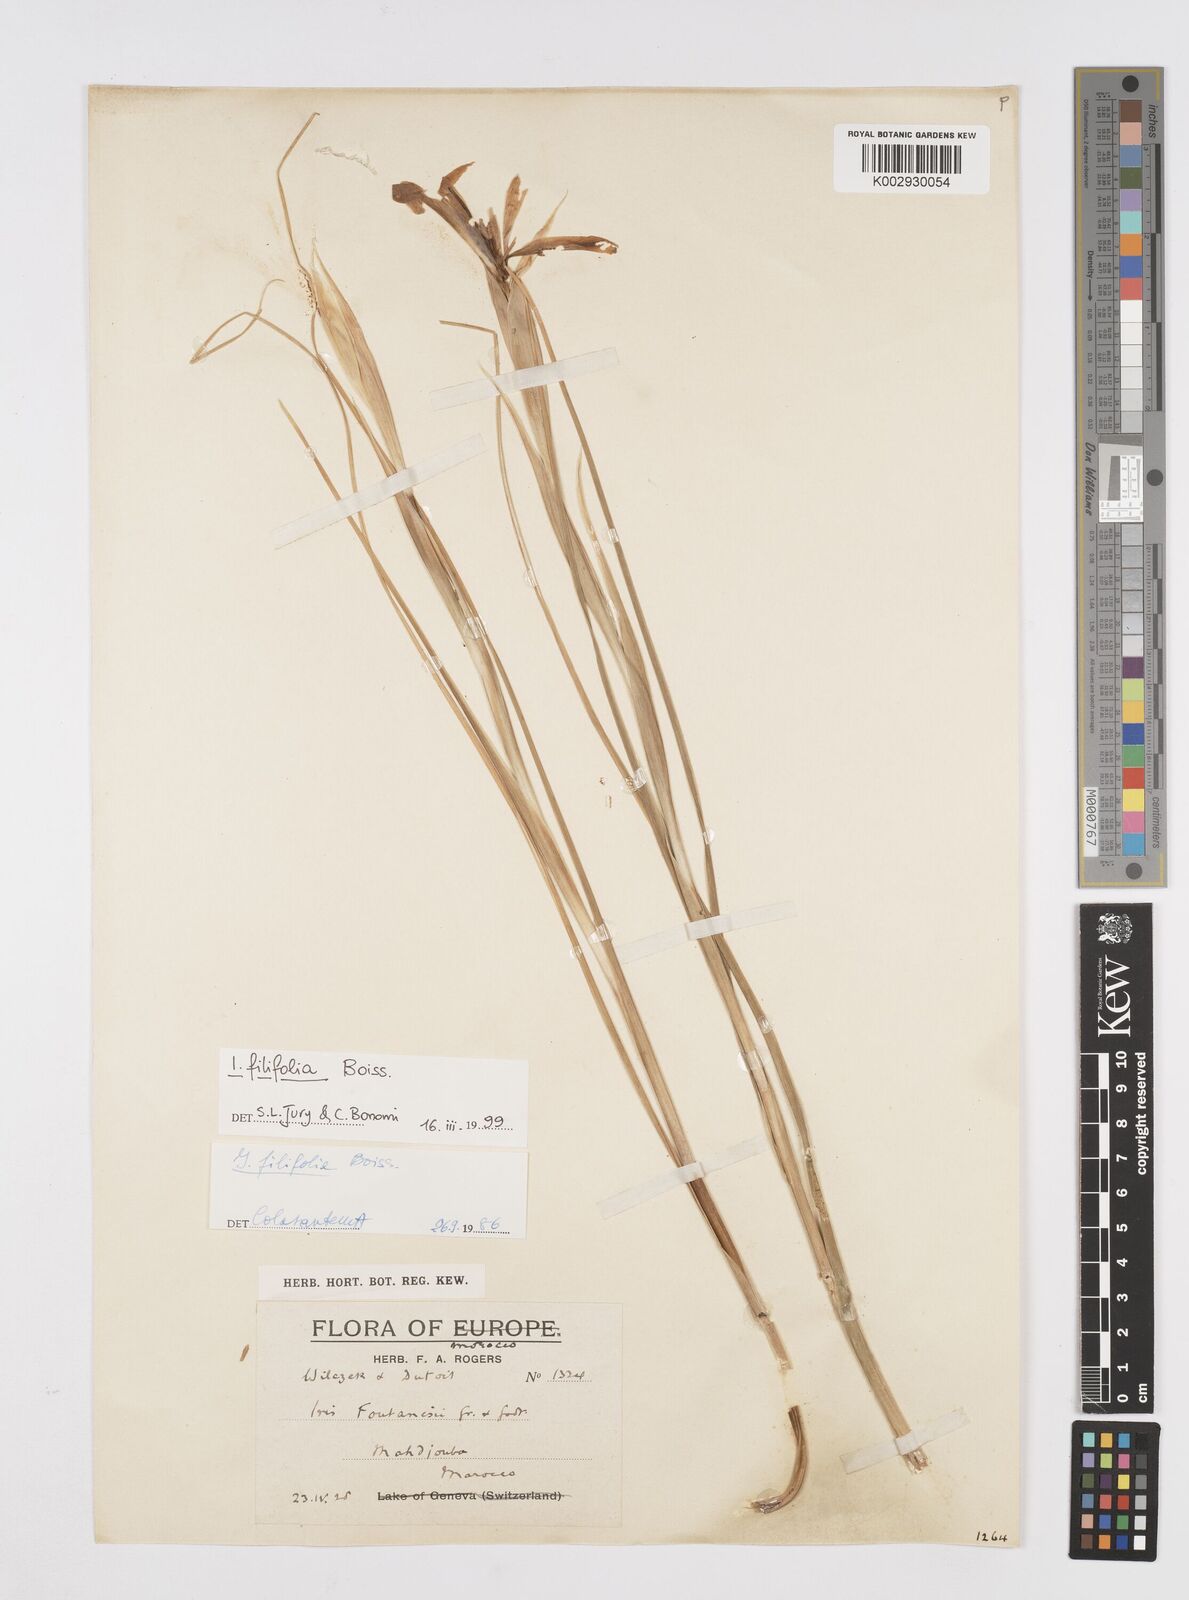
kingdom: Plantae
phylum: Tracheophyta
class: Liliopsida
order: Asparagales
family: Iridaceae
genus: Iris
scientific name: Iris filifolia
